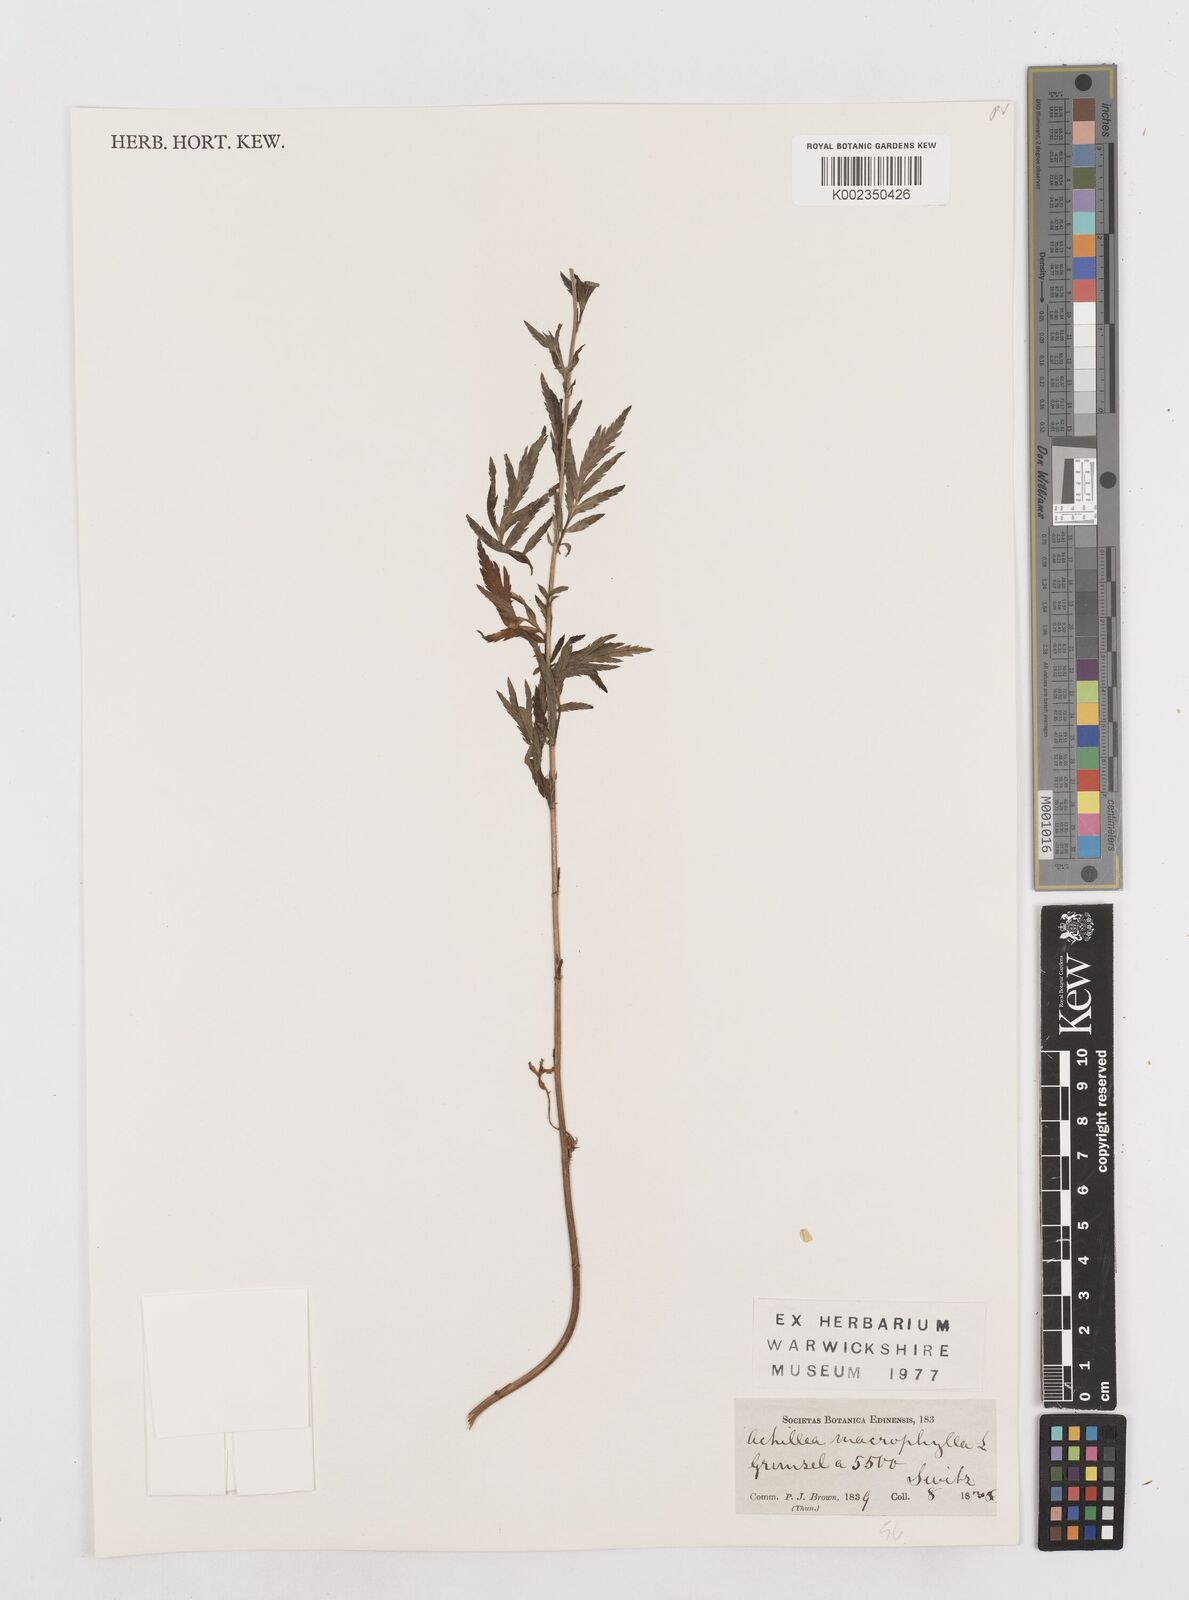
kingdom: Plantae
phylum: Tracheophyta
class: Magnoliopsida
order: Asterales
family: Asteraceae
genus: Achillea
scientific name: Achillea macrophylla
